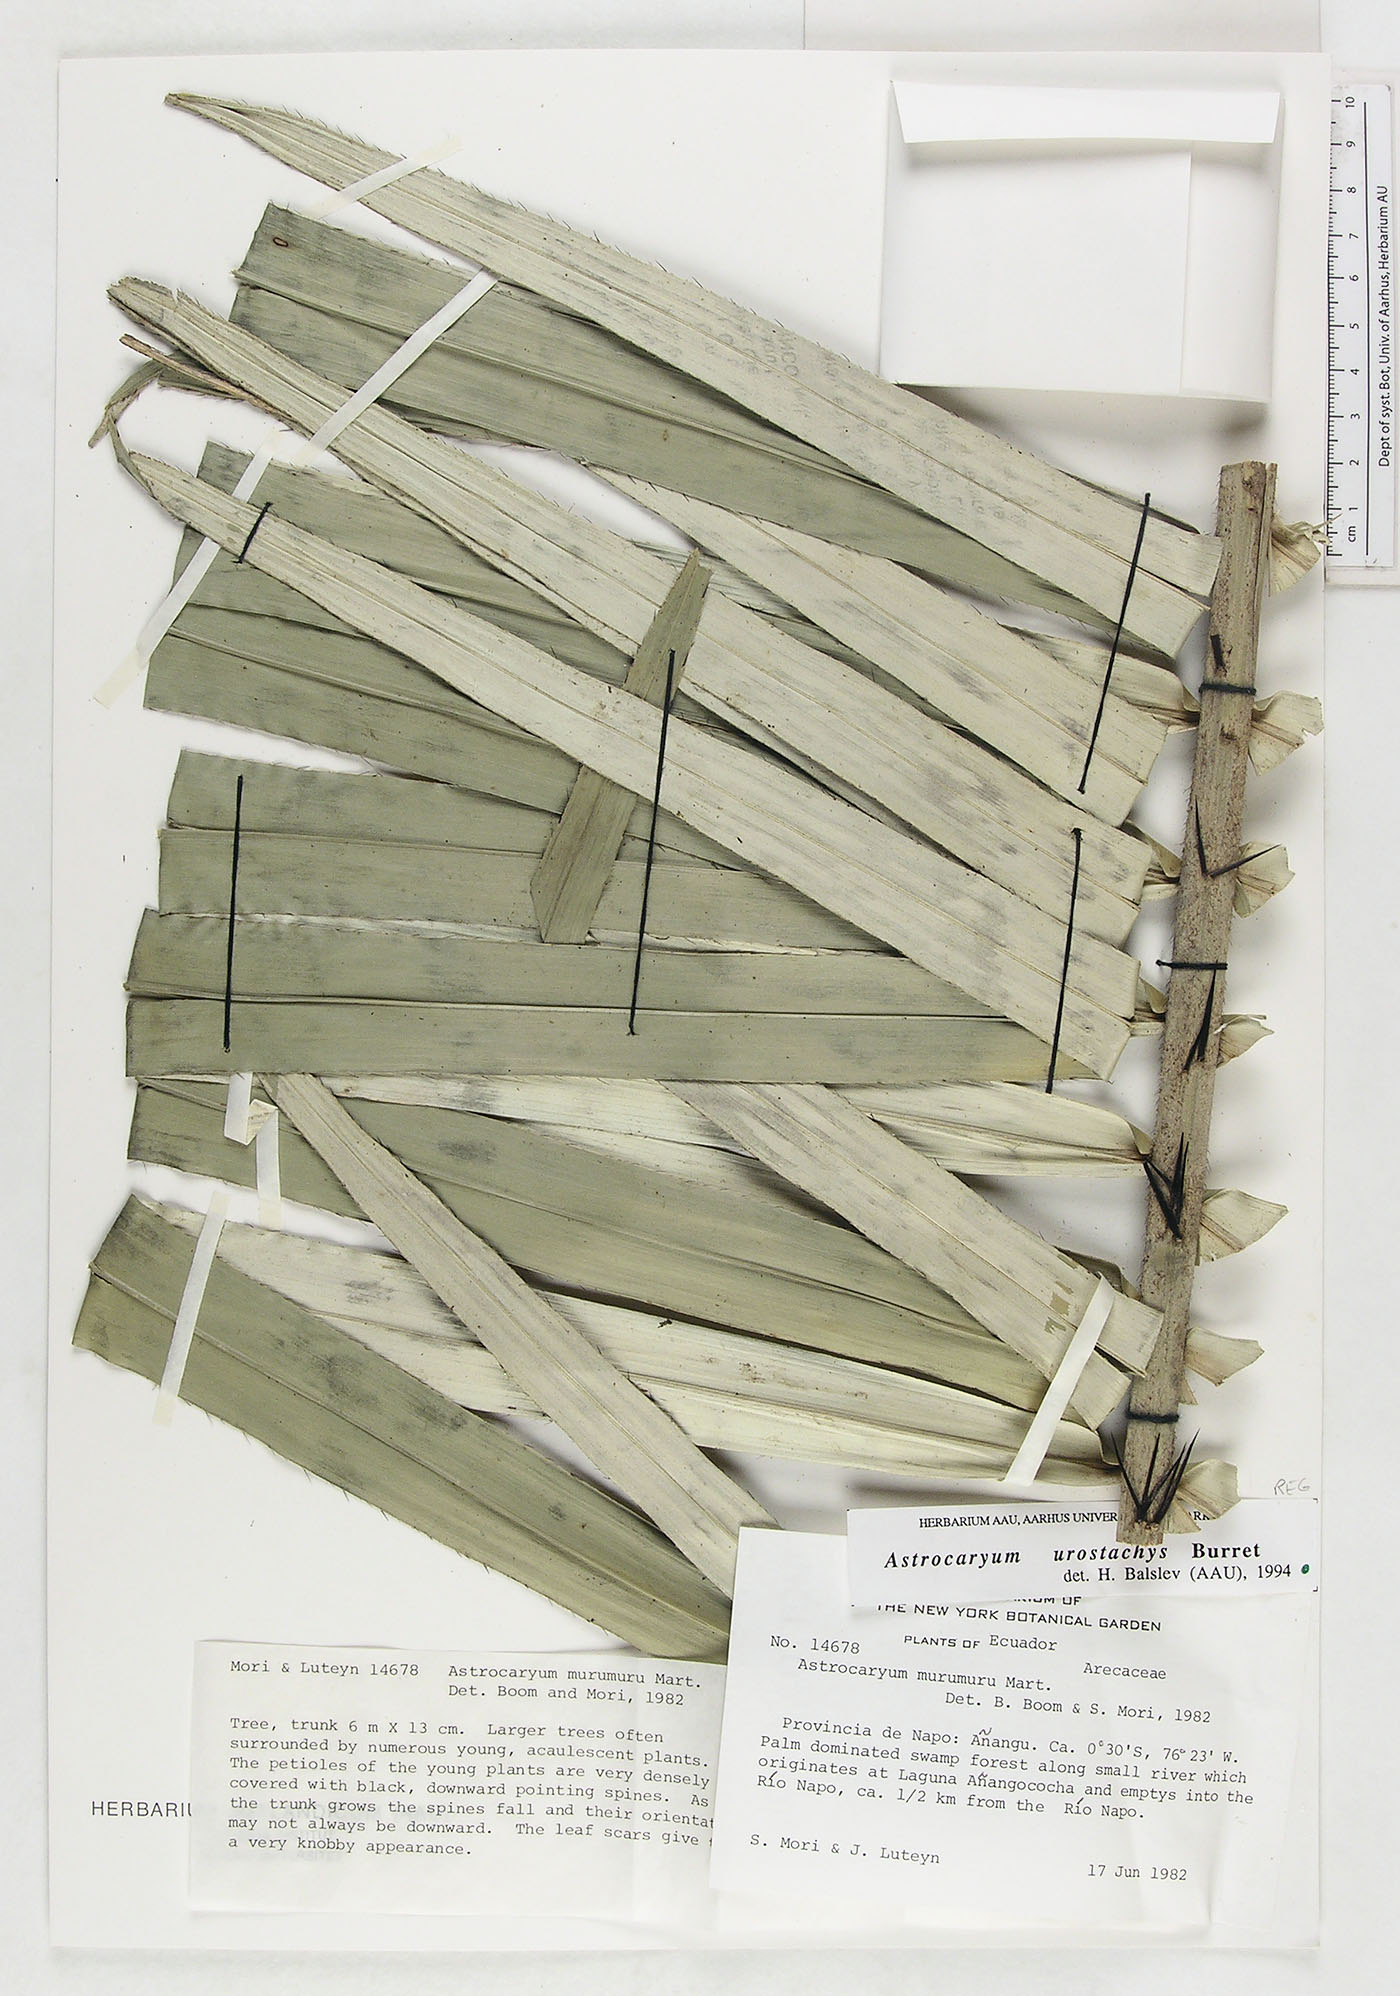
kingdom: Plantae
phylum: Tracheophyta
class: Liliopsida
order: Arecales
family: Arecaceae
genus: Astrocaryum
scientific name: Astrocaryum urostachys
